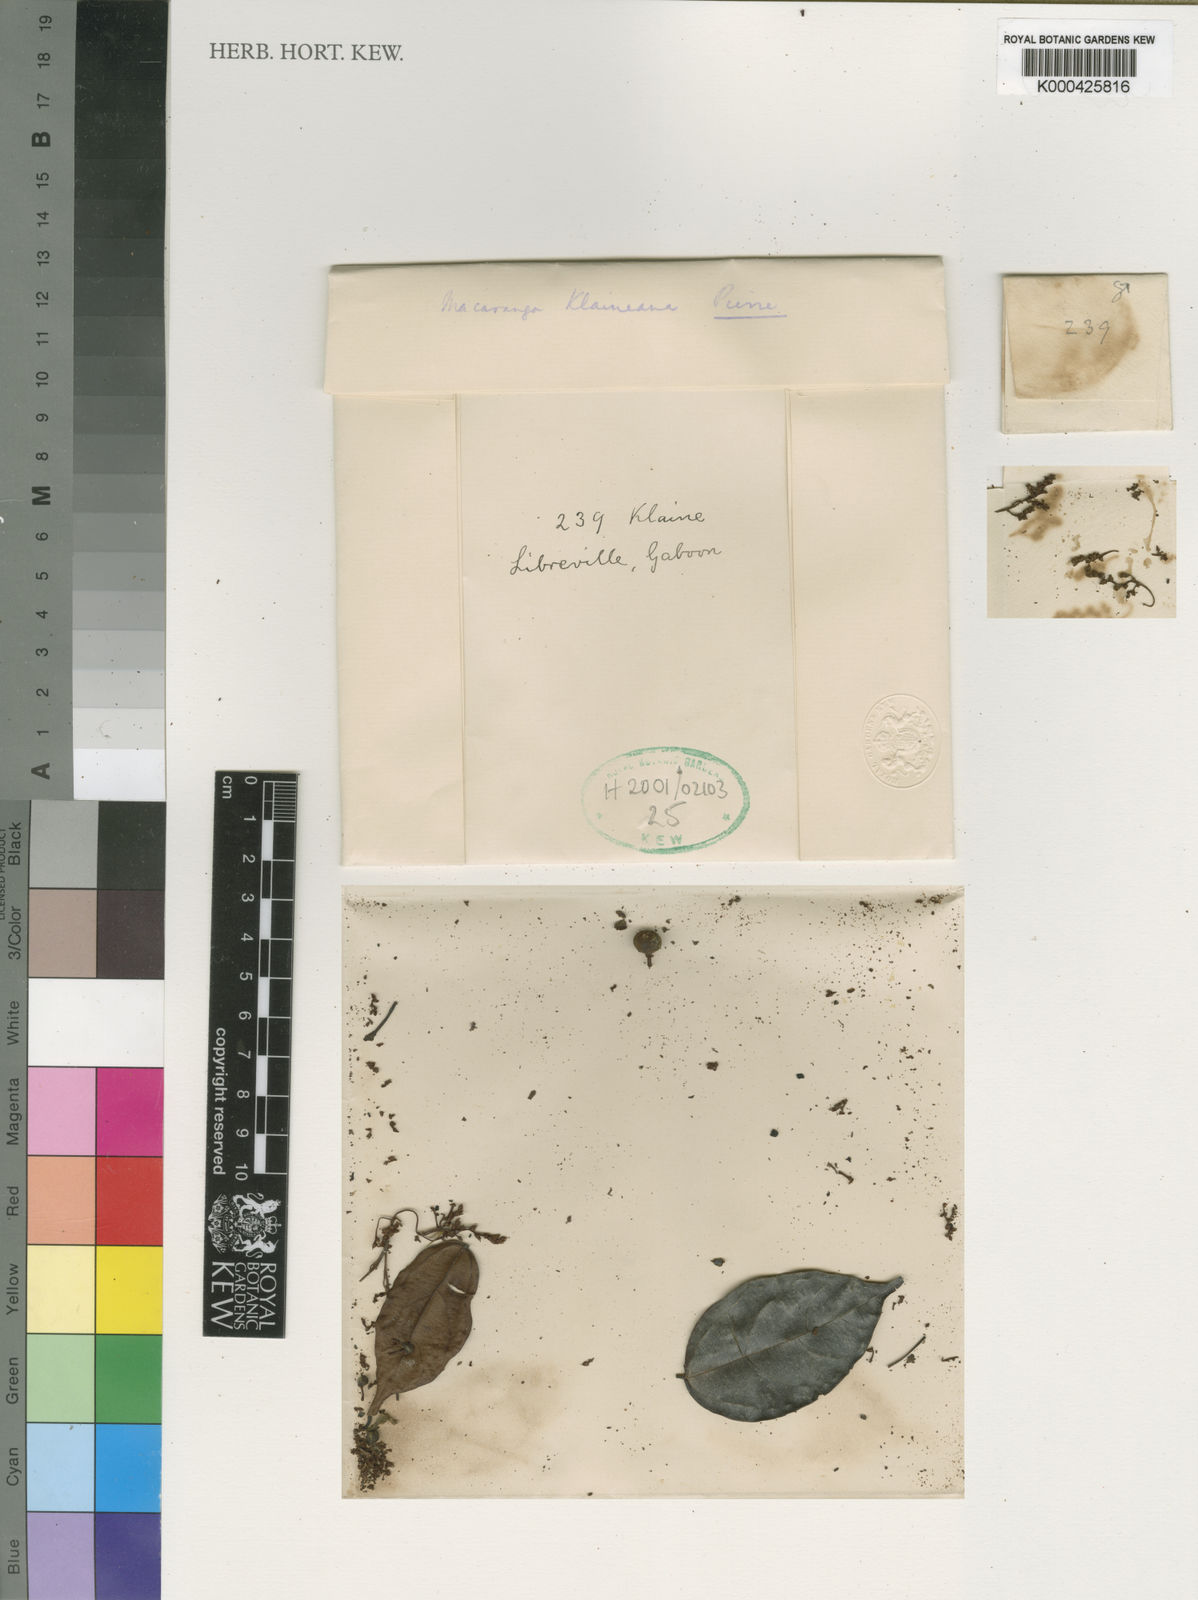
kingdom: Plantae
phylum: Tracheophyta
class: Magnoliopsida
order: Malpighiales
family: Euphorbiaceae
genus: Macaranga
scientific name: Macaranga klaineana
